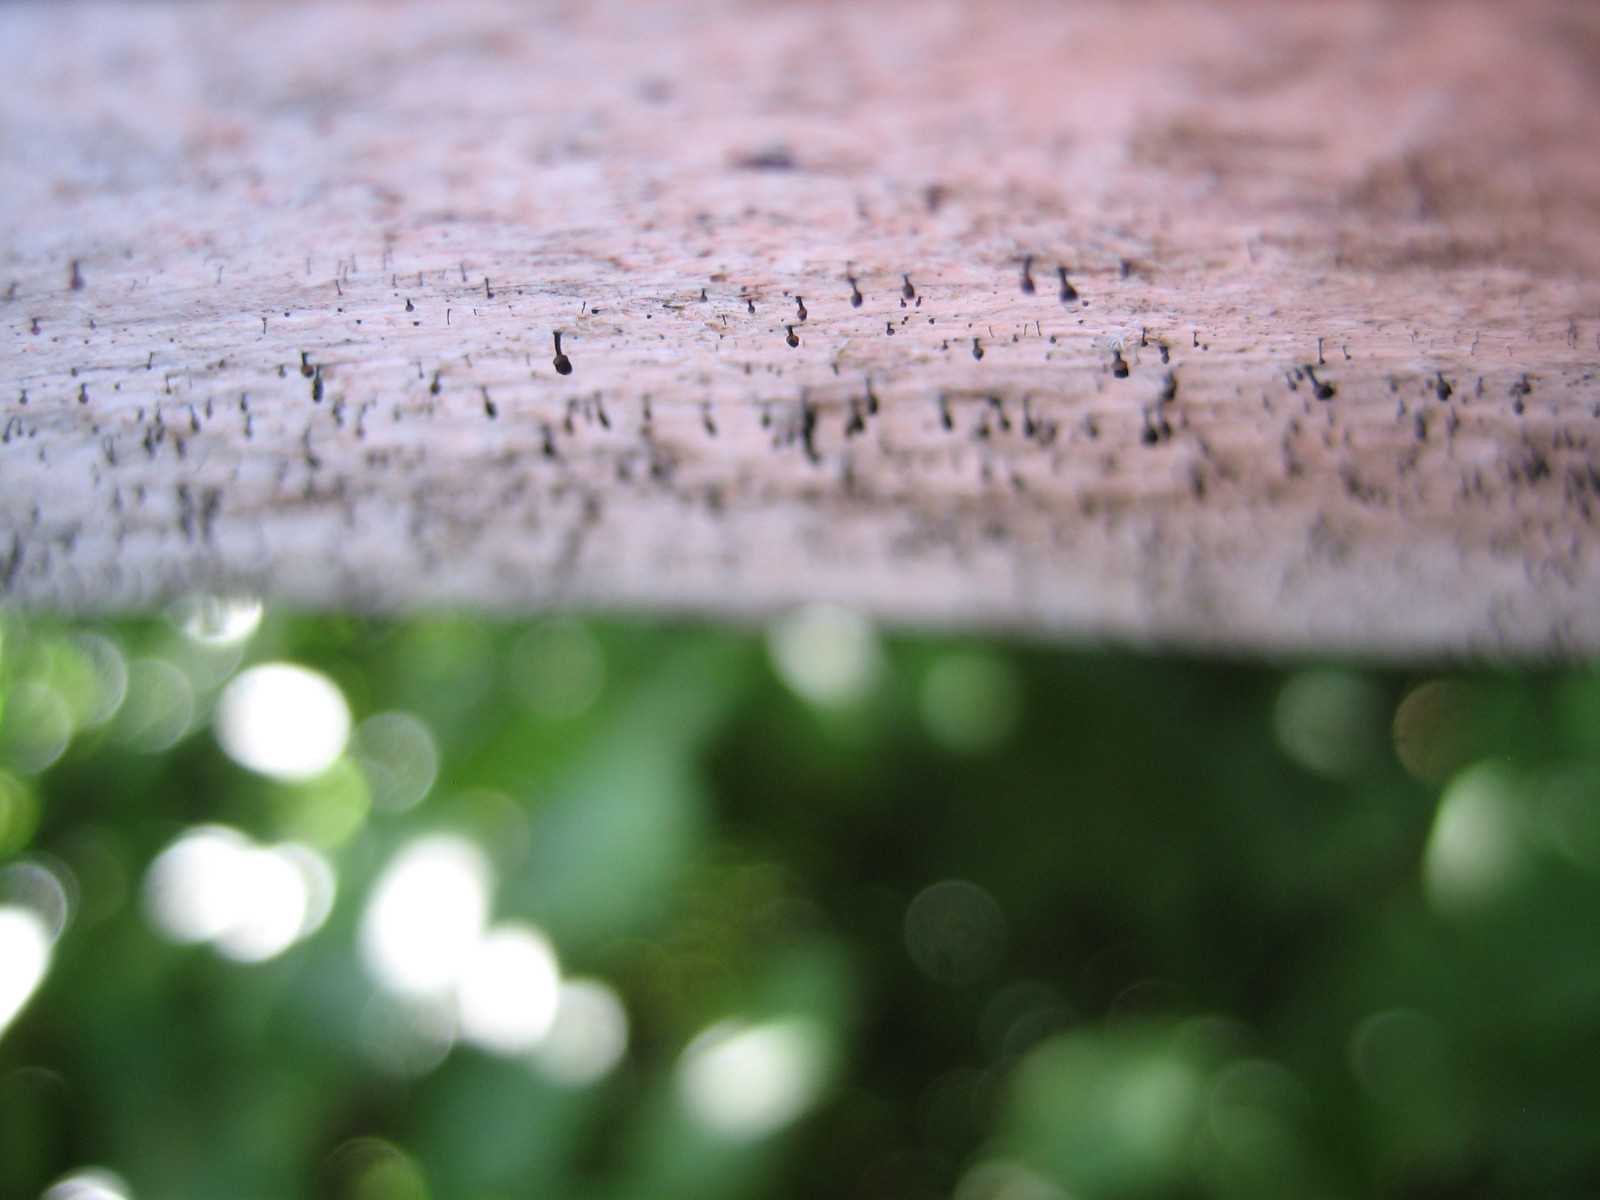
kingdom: Fungi
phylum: Ascomycota
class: Lecanoromycetes
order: Caliciales
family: Caliciaceae
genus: Calicium
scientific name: Calicium salicinum
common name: persoons nålelav
